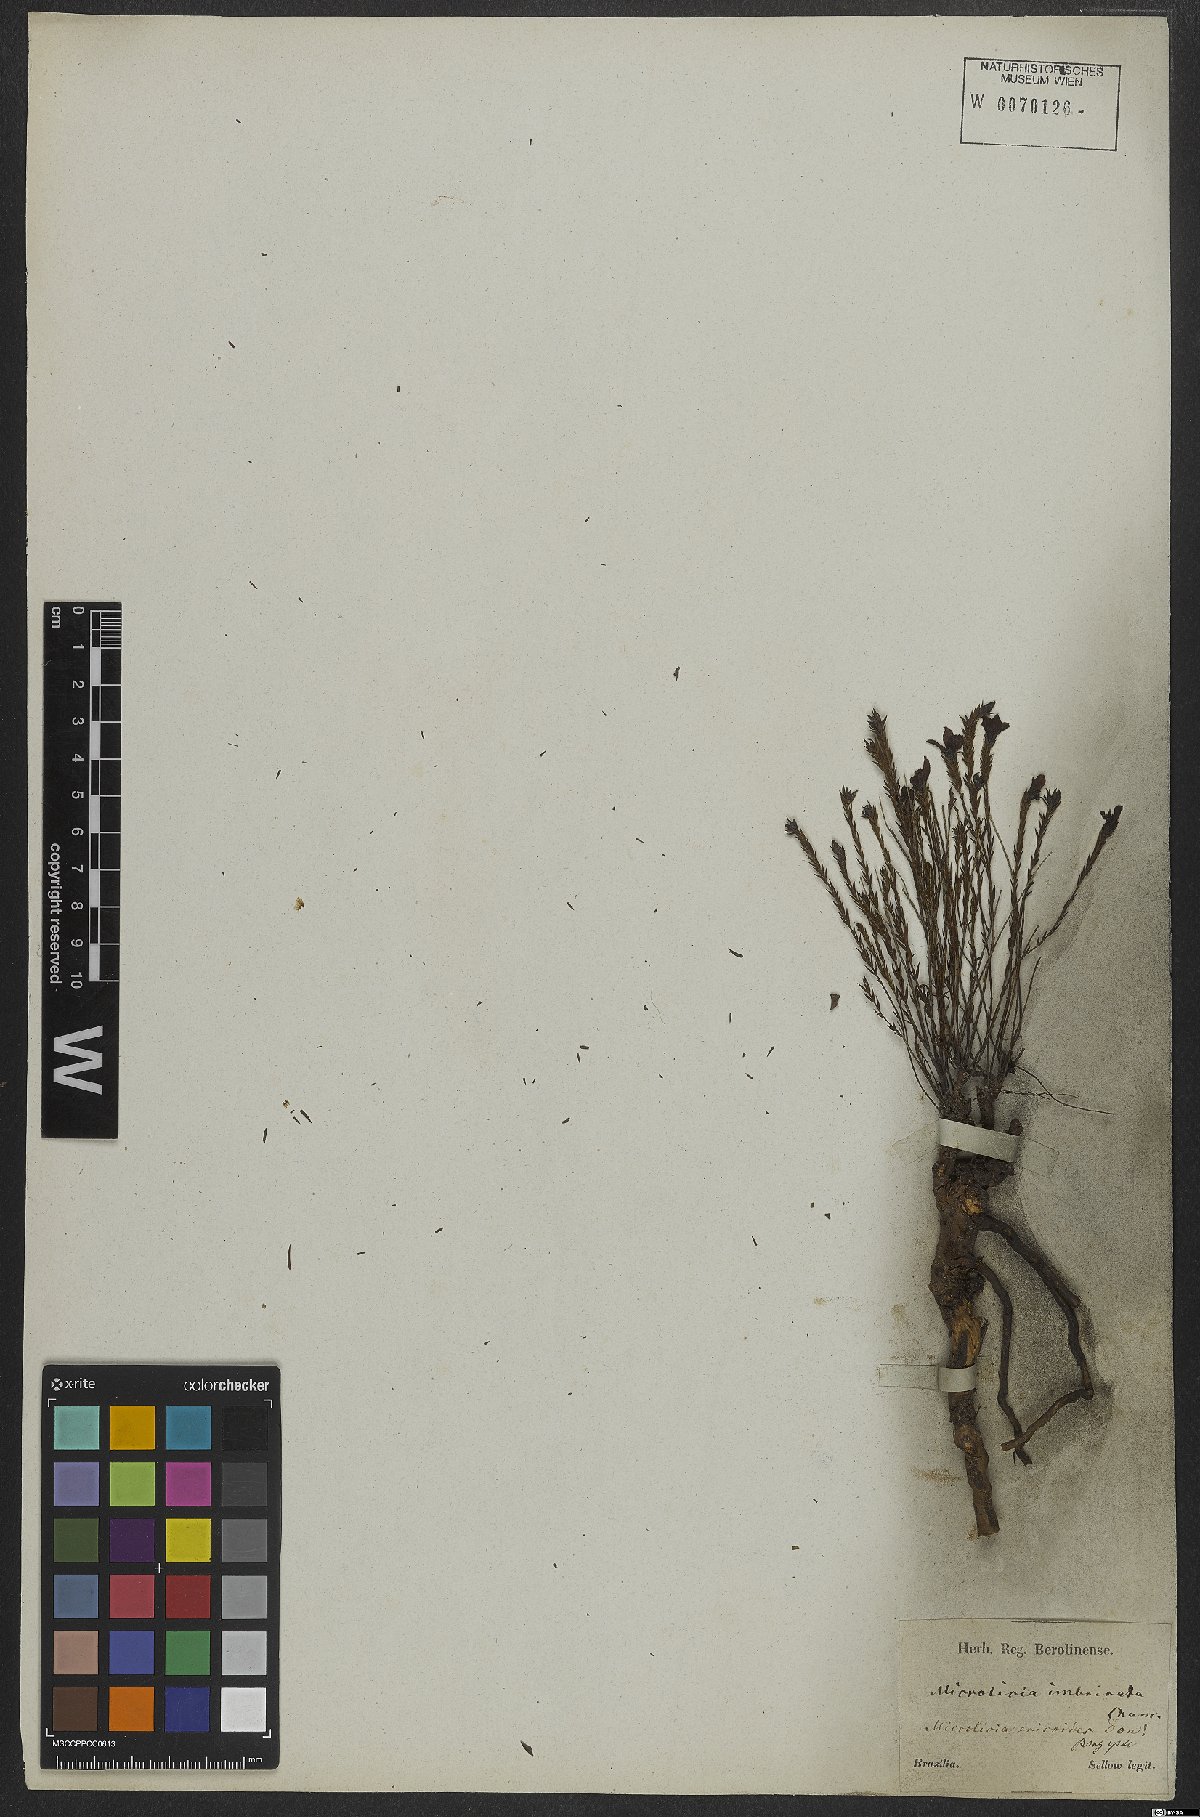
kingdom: Plantae
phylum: Tracheophyta
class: Magnoliopsida
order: Myrtales
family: Melastomataceae
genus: Microlicia
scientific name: Microlicia ericoides
